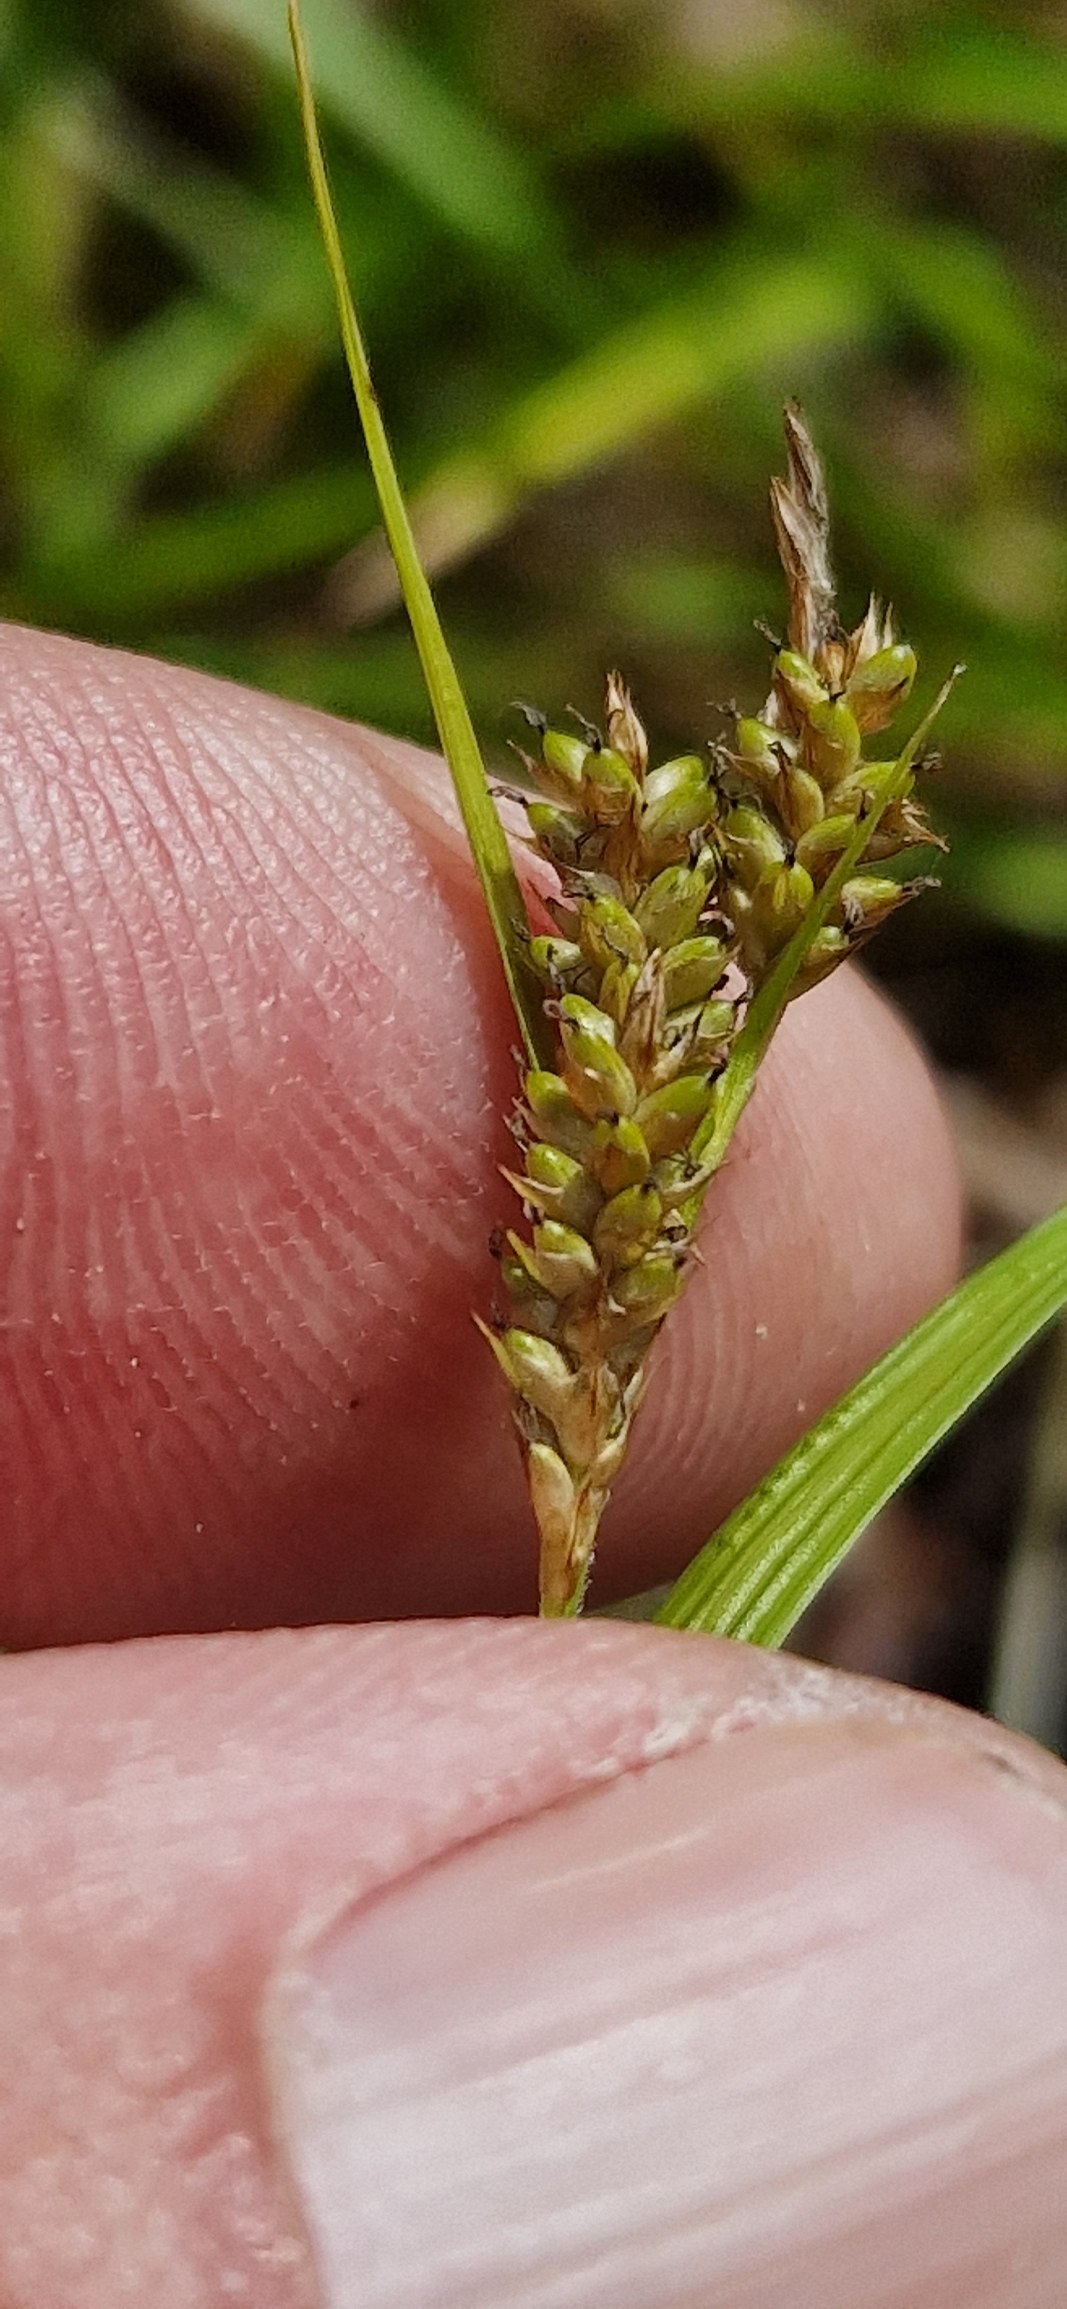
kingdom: Plantae
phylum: Tracheophyta
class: Liliopsida
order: Poales
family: Cyperaceae
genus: Carex
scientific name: Carex pallescens
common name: Bleg star
